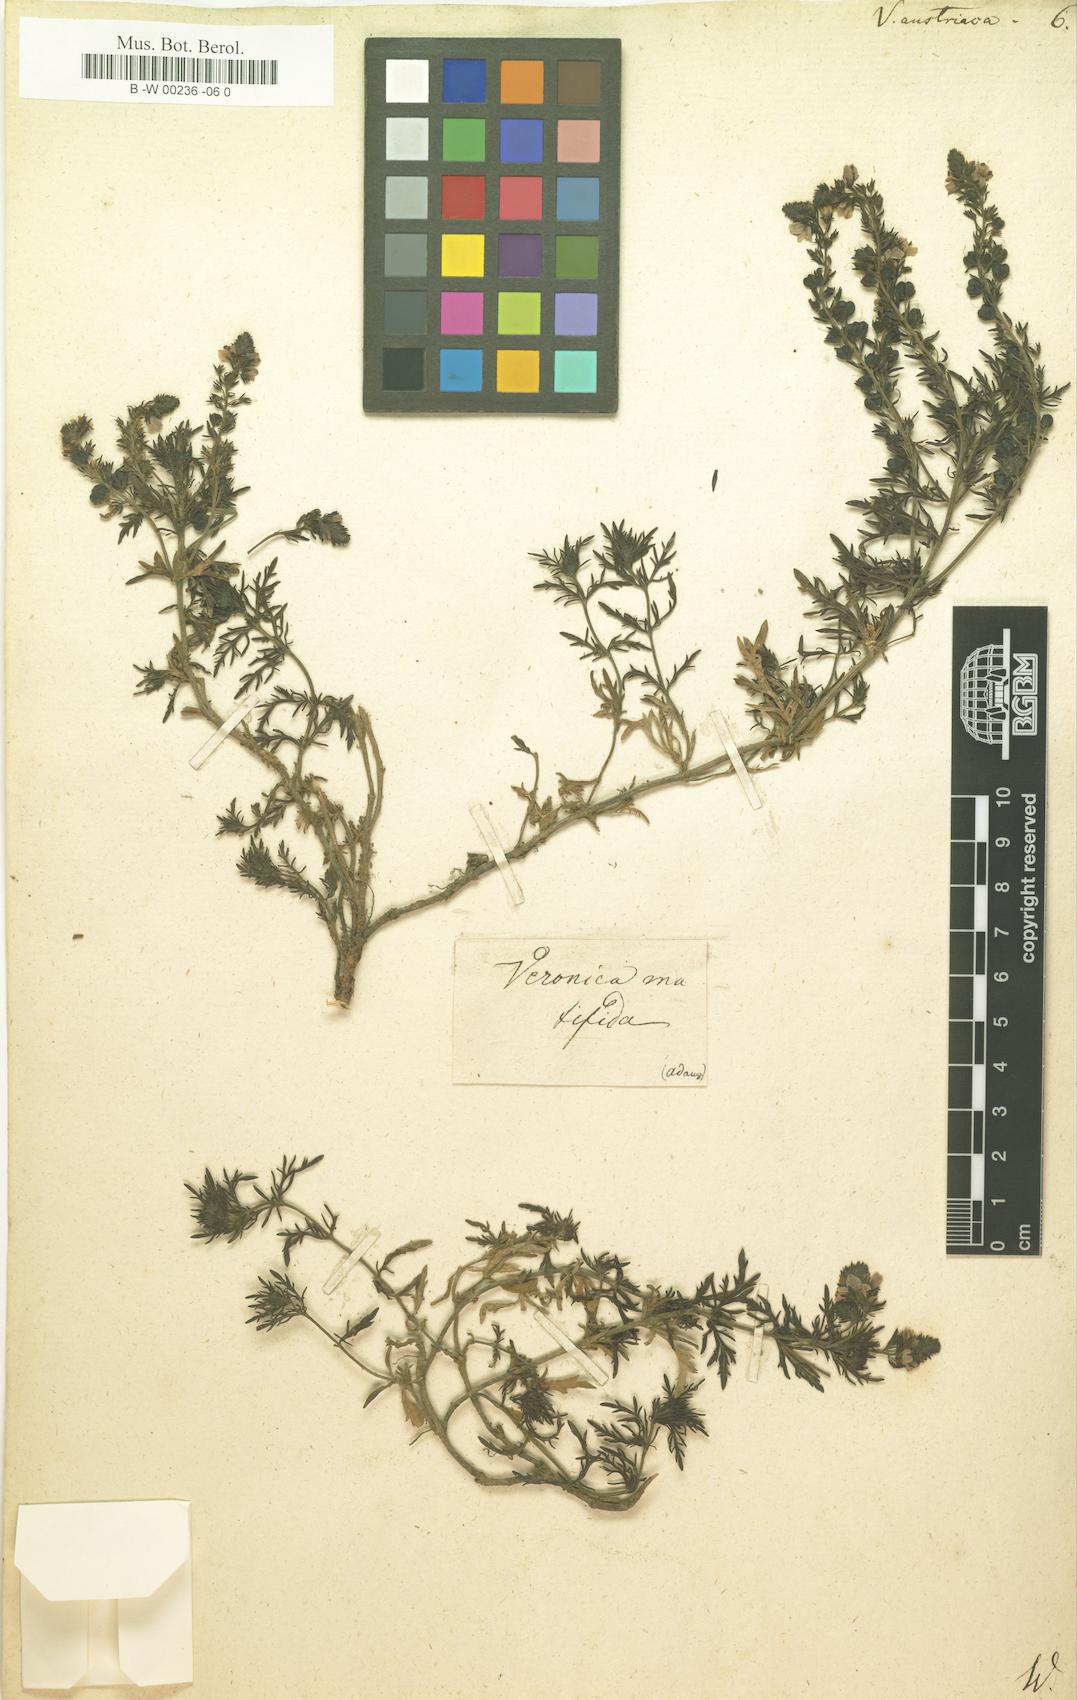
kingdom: Plantae
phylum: Tracheophyta
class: Magnoliopsida
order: Lamiales
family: Plantaginaceae
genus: Veronica
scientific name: Veronica austriaca
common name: Large speedwell
